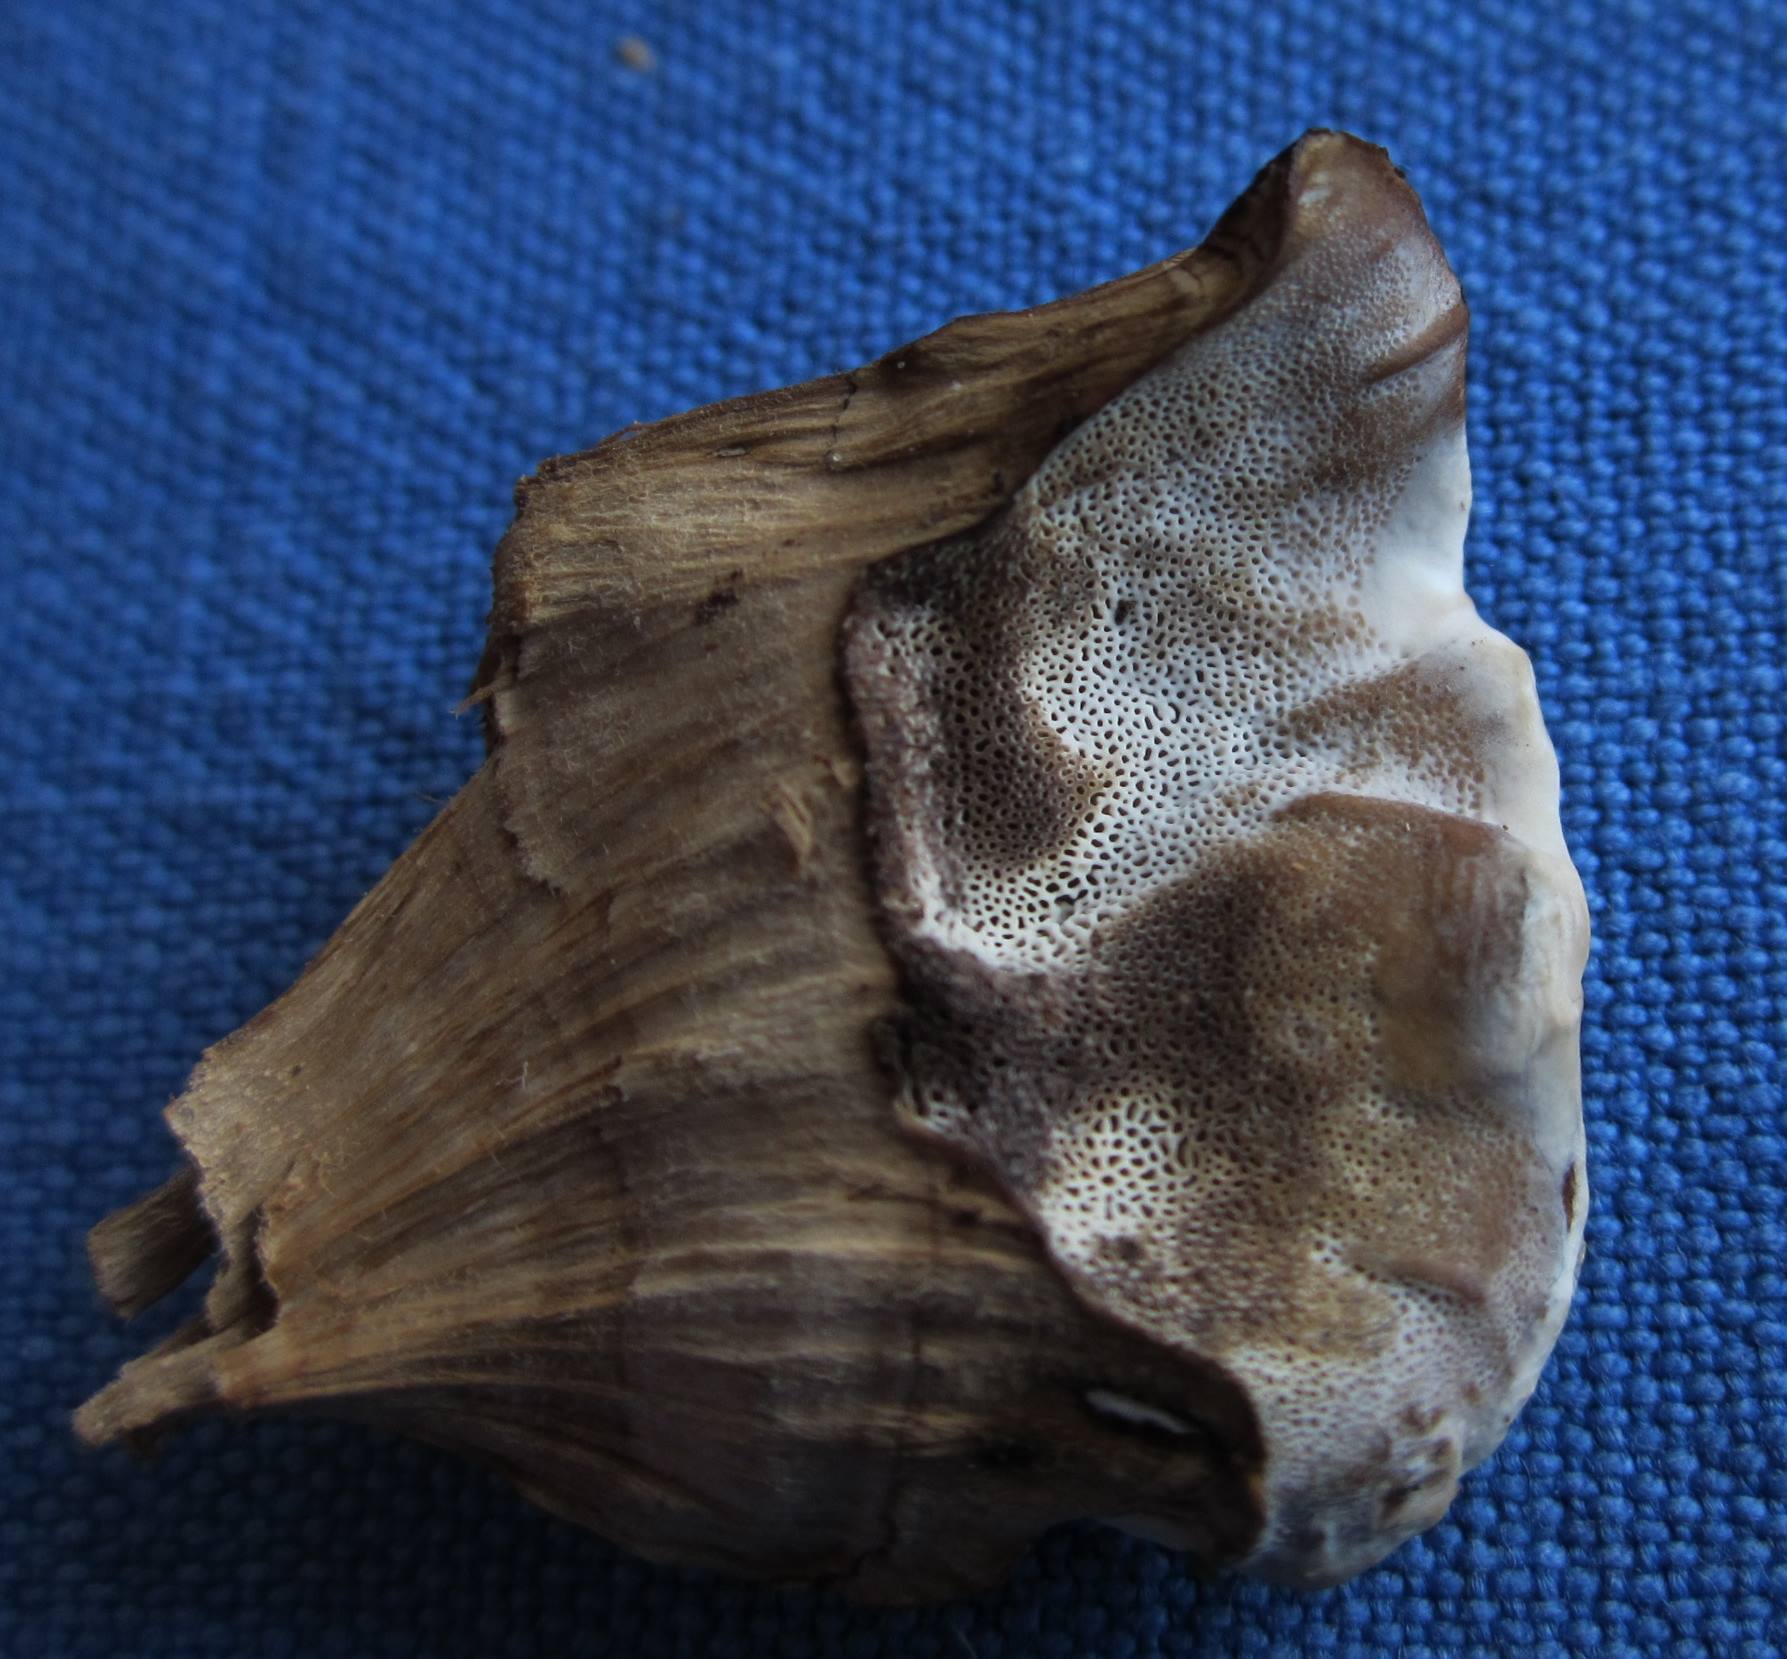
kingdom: Fungi
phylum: Basidiomycota
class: Agaricomycetes
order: Polyporales
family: Phanerochaetaceae
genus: Bjerkandera
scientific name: Bjerkandera fumosa
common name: grågul sodporesvamp
